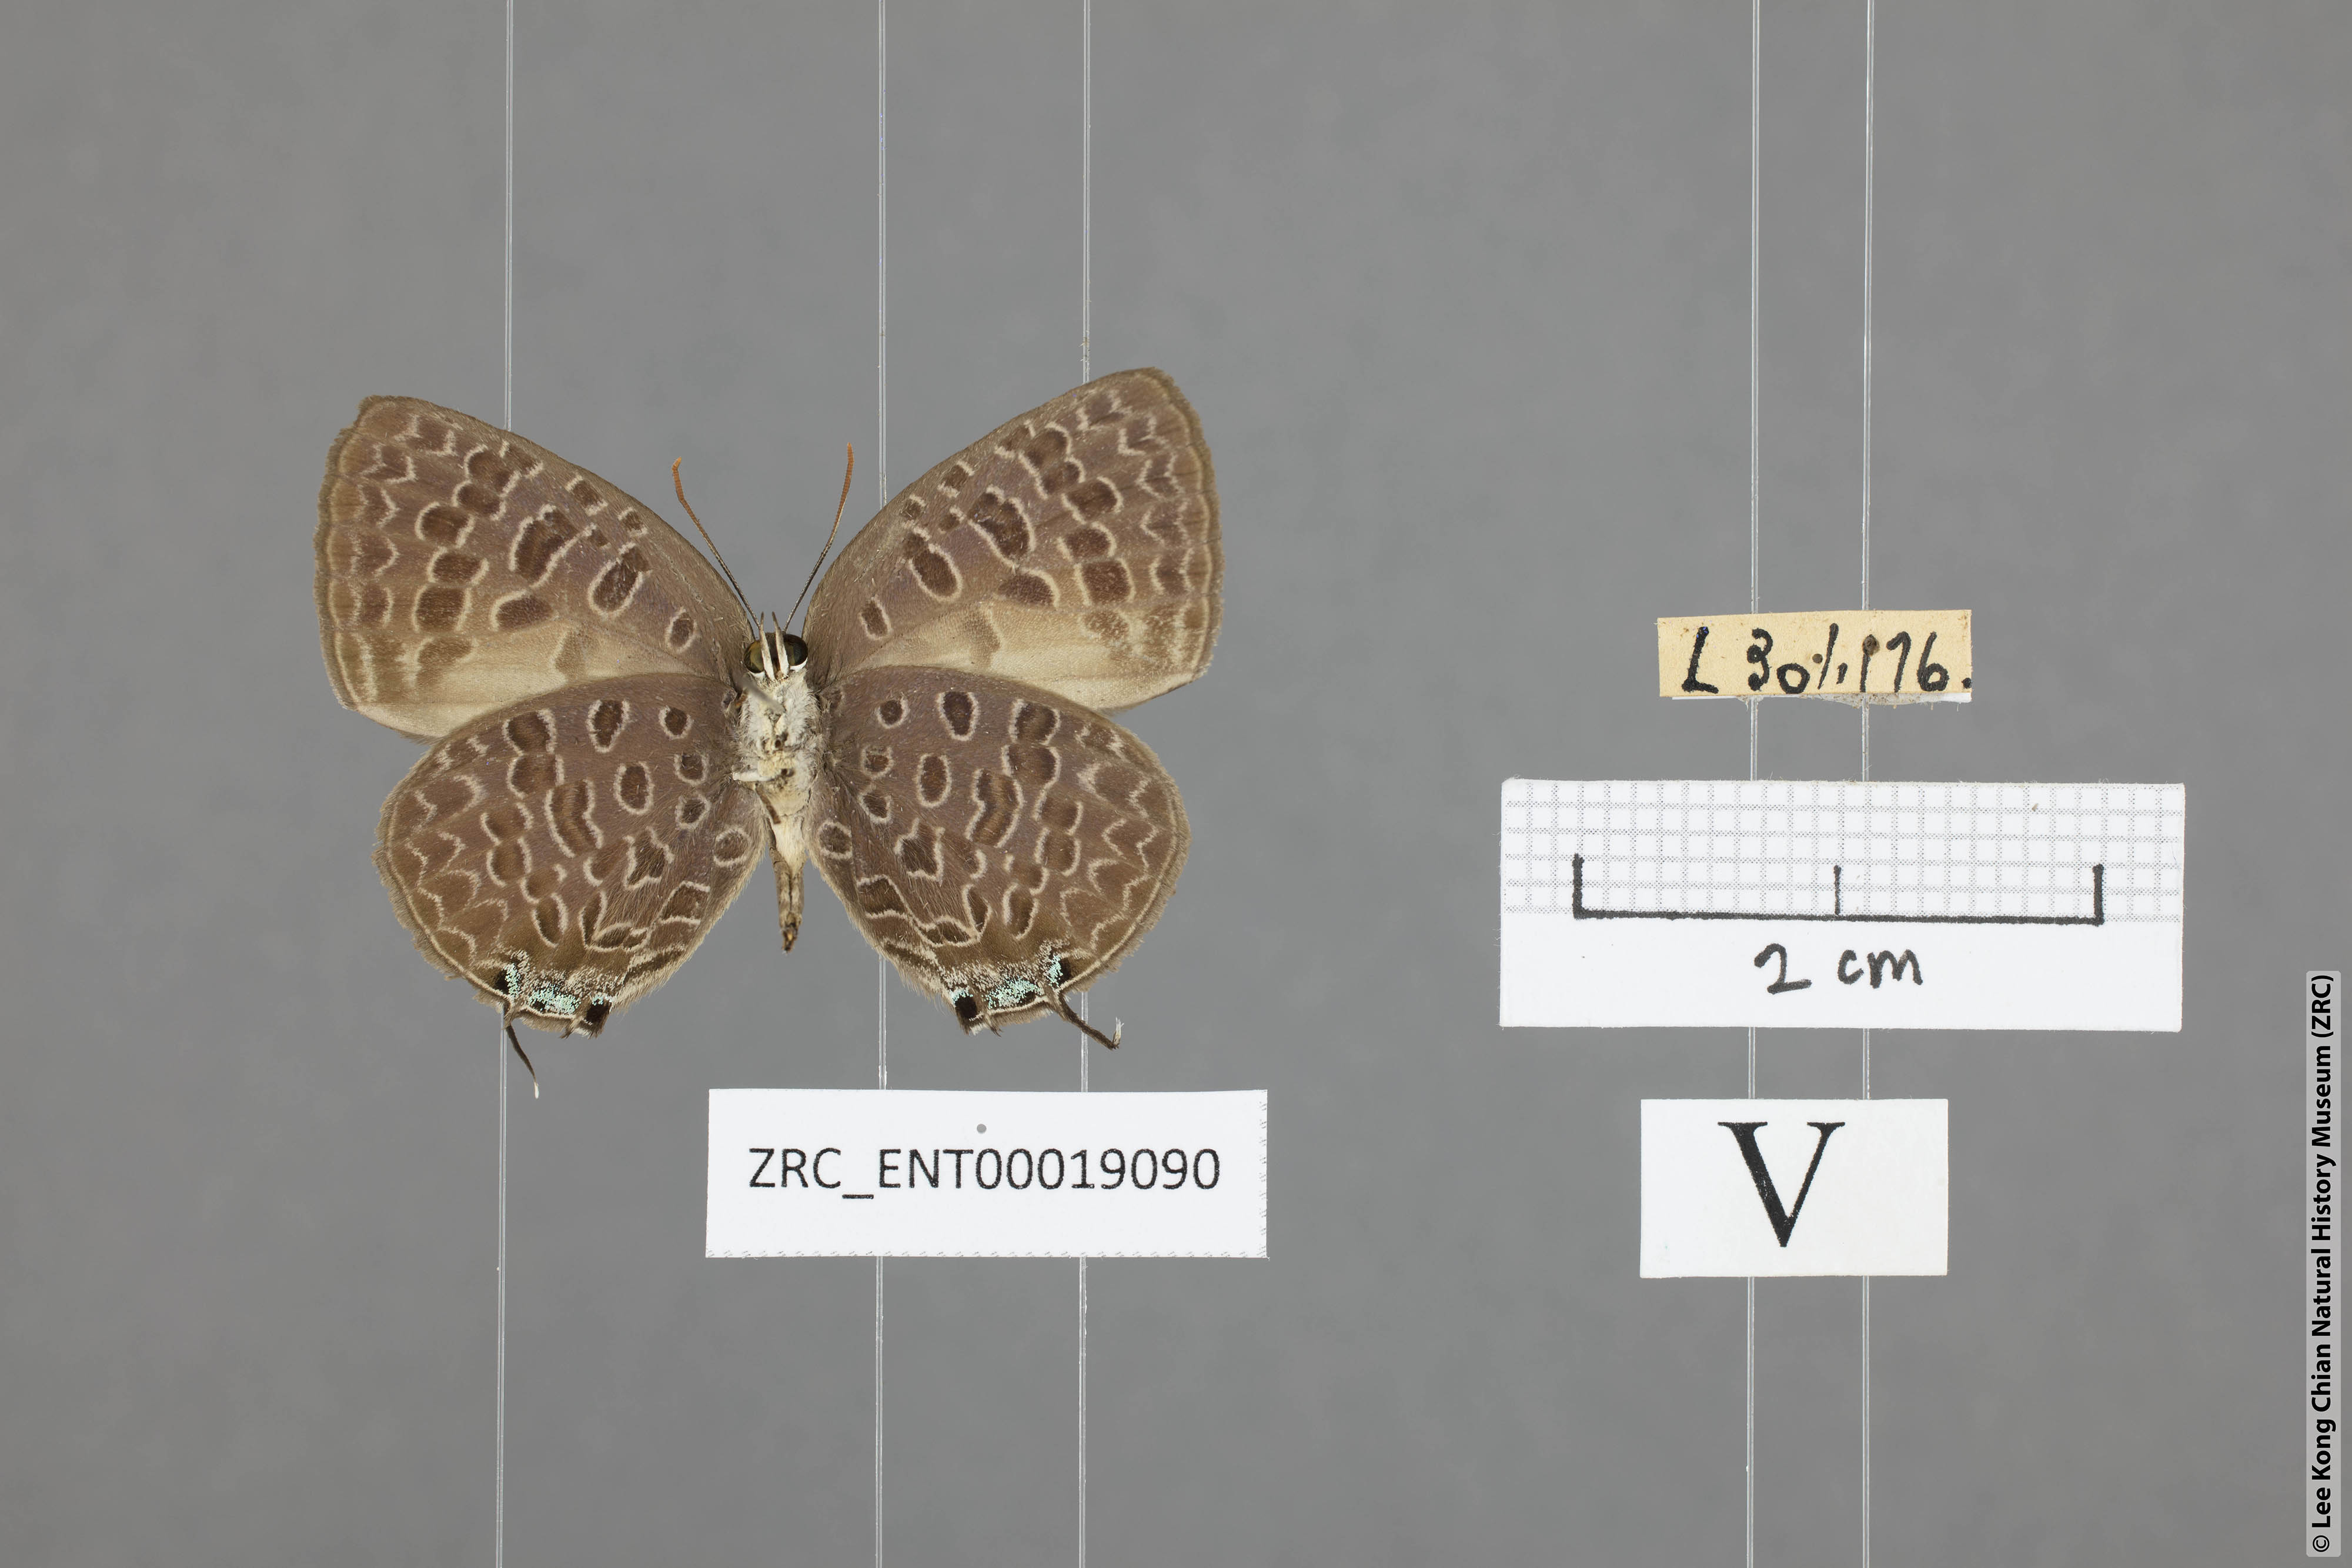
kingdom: Animalia
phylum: Arthropoda
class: Insecta
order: Lepidoptera
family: Lycaenidae
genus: Arhopala
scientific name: Arhopala alitaeus
